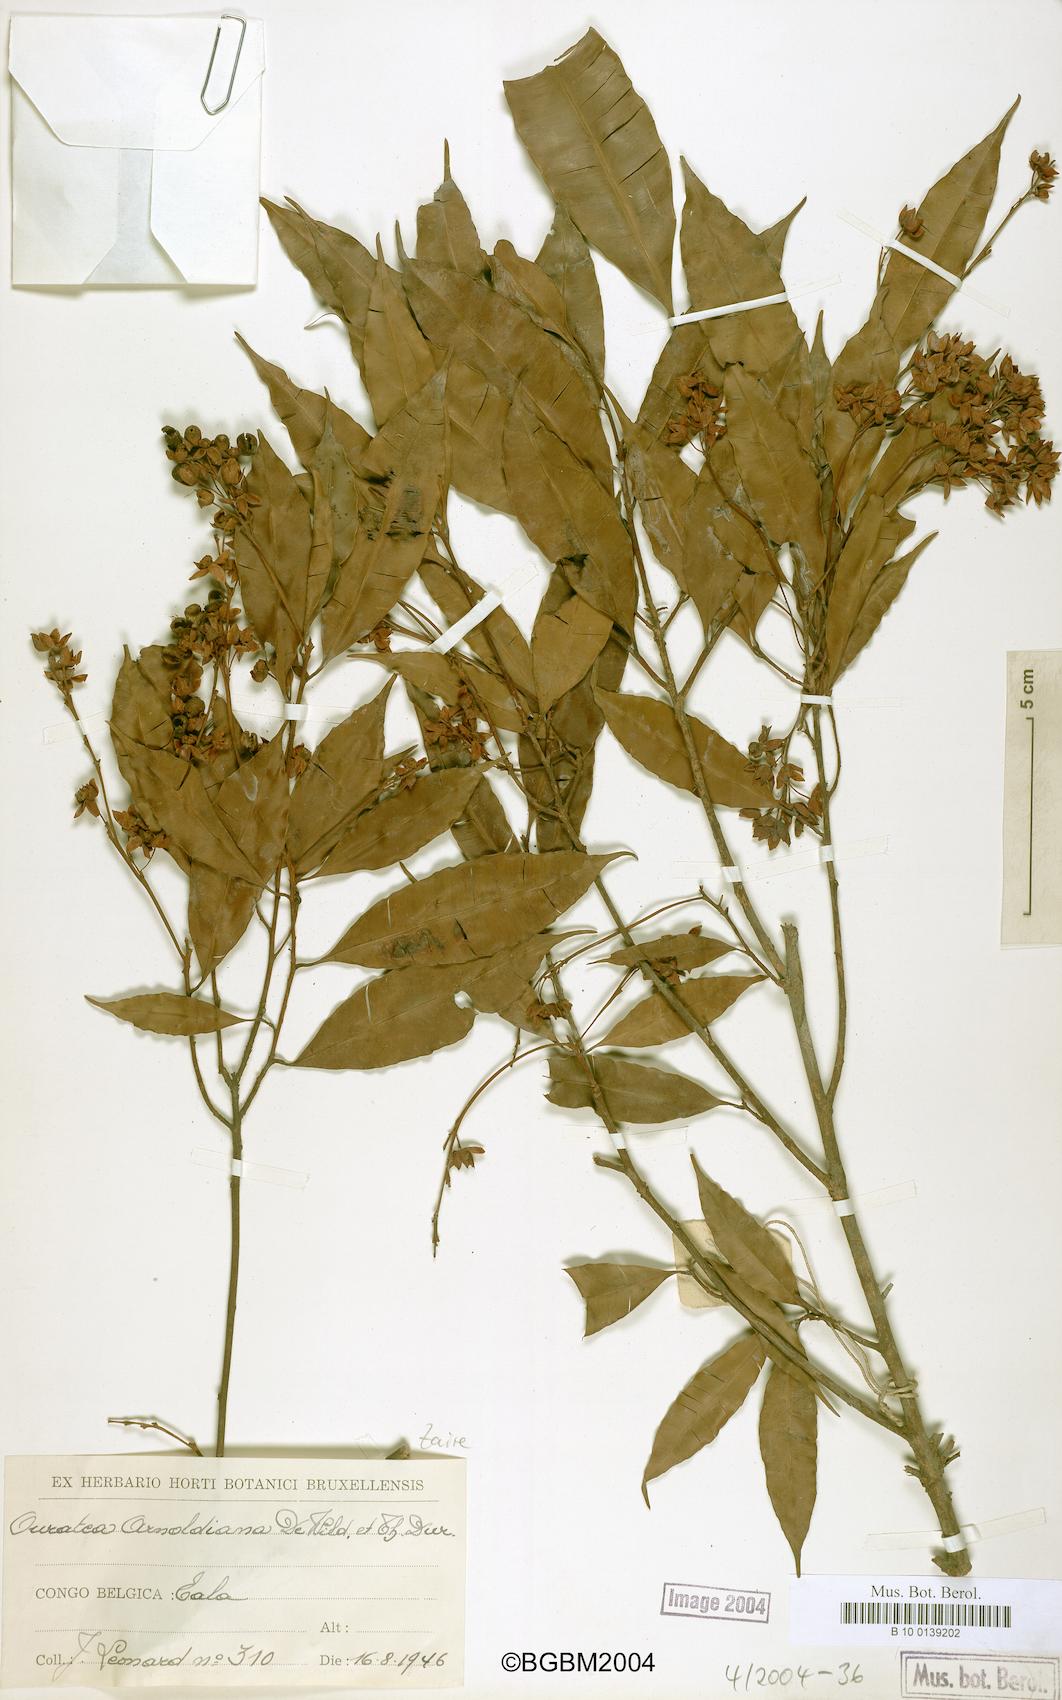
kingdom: Plantae
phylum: Tracheophyta
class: Magnoliopsida
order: Malpighiales
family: Ochnaceae
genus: Rhabdophyllum
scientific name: Rhabdophyllum arnoldianum
